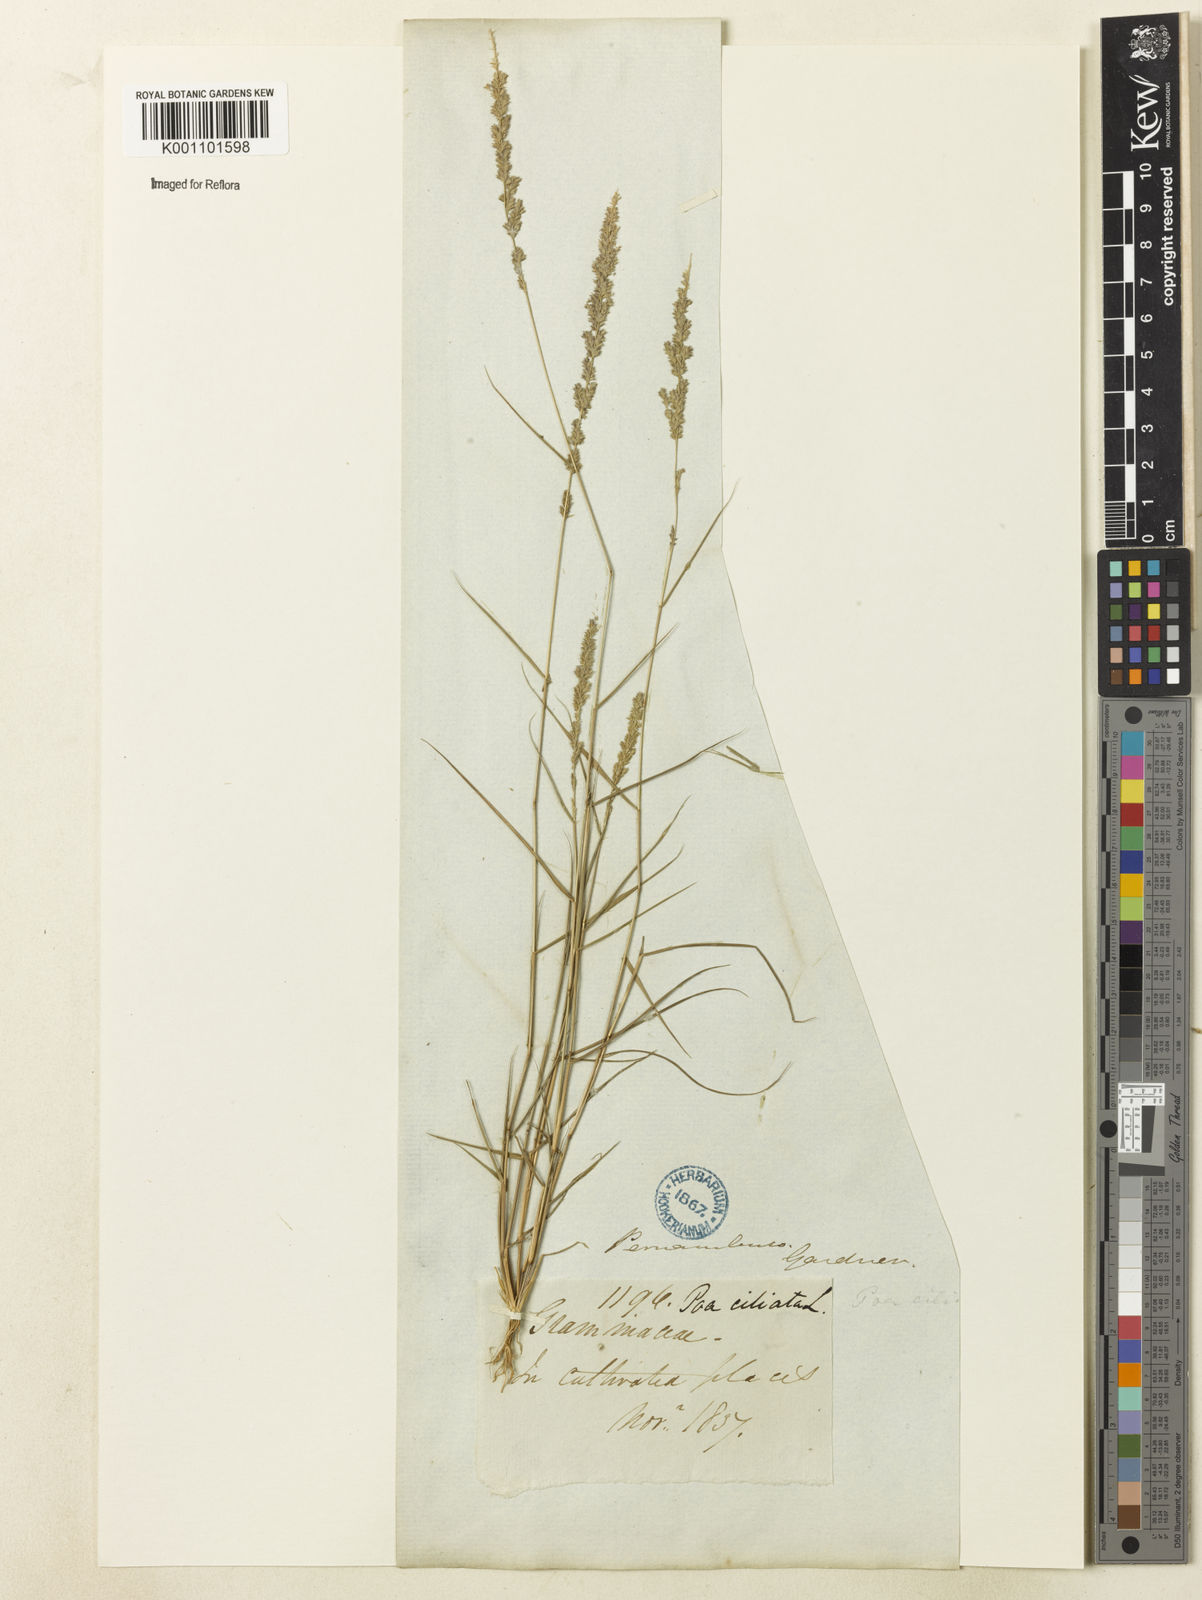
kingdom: Plantae
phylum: Tracheophyta
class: Liliopsida
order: Poales
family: Poaceae
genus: Eragrostis
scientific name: Eragrostis ciliaris
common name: Gophertail lovegrass
